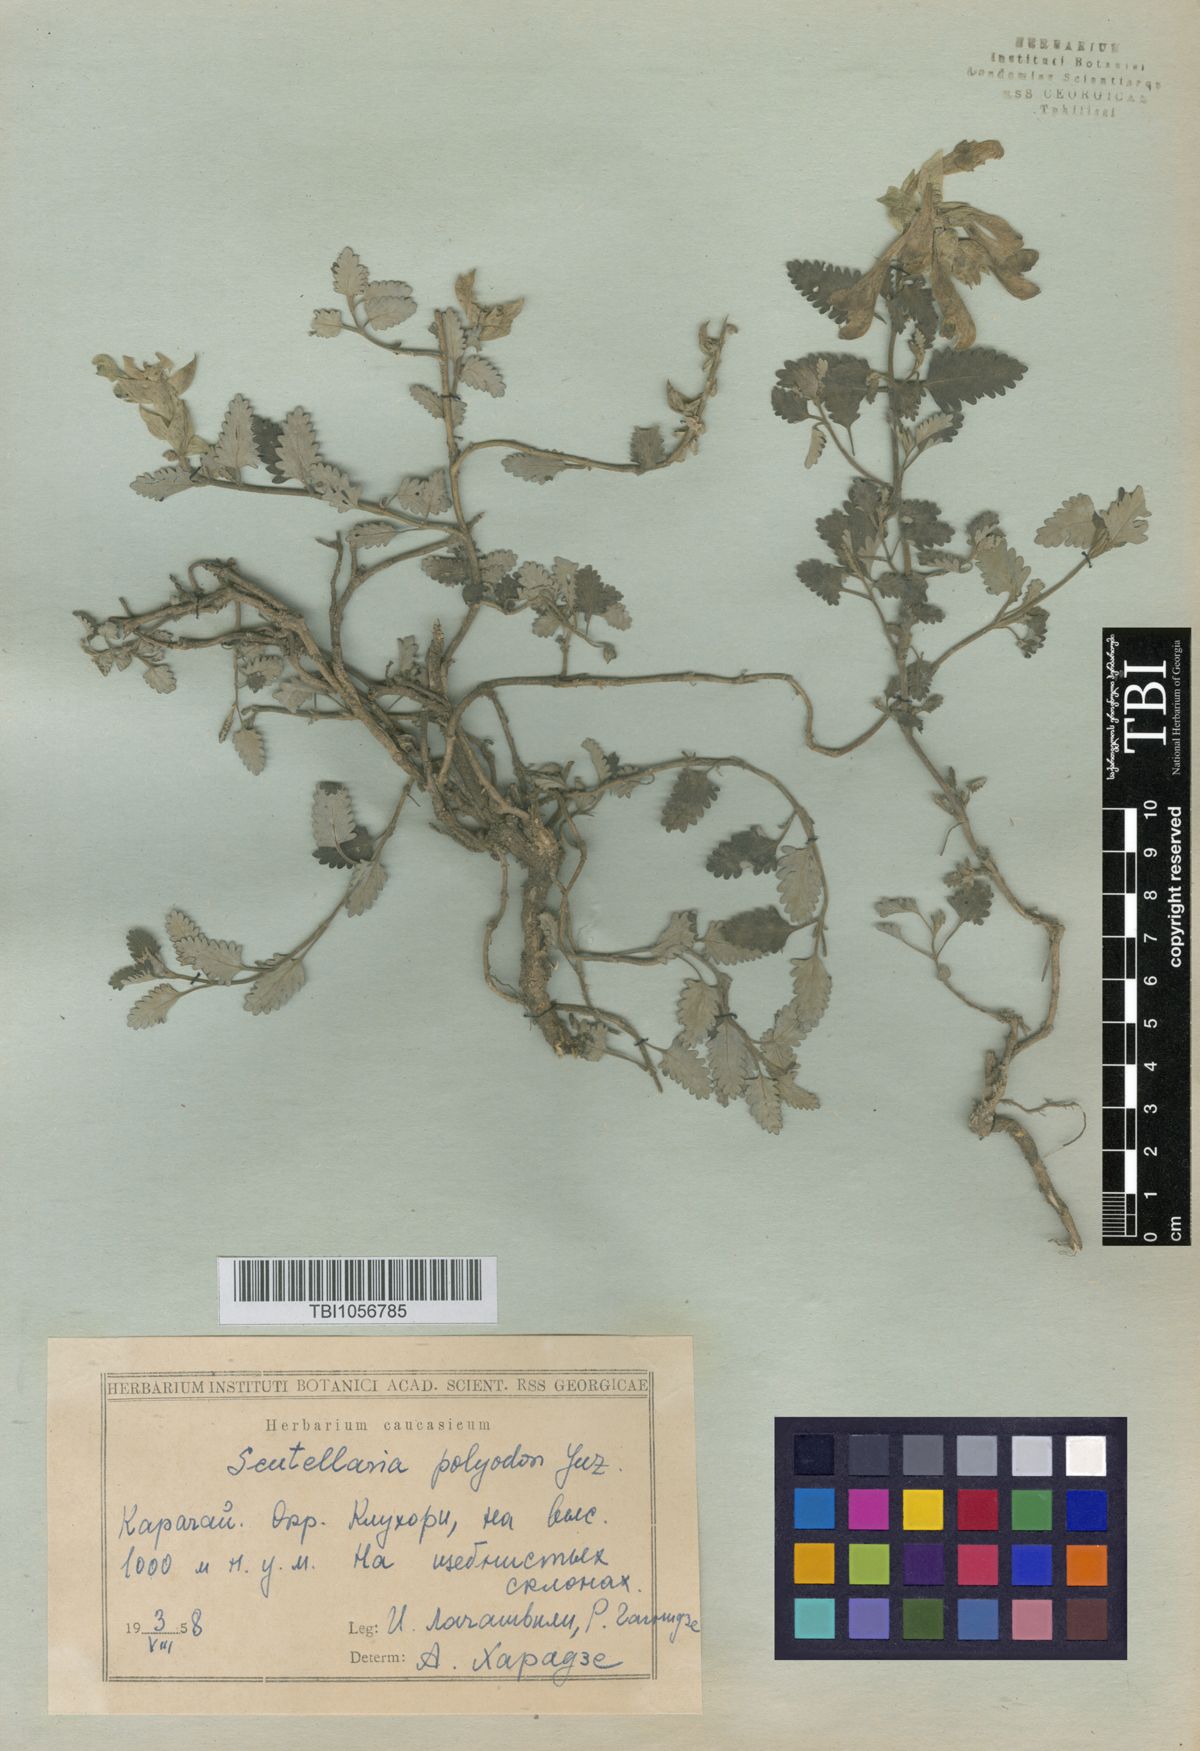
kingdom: Plantae
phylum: Tracheophyta
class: Magnoliopsida
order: Lamiales
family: Lamiaceae
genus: Scutellaria
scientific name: Scutellaria caucasica
